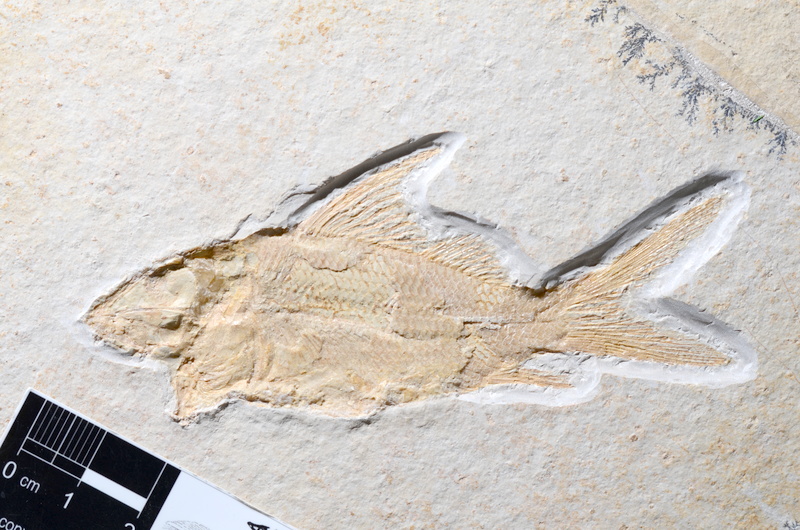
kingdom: Animalia
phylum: Chordata
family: Macrosemiidae
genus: Propterus
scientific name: Propterus microstomus
